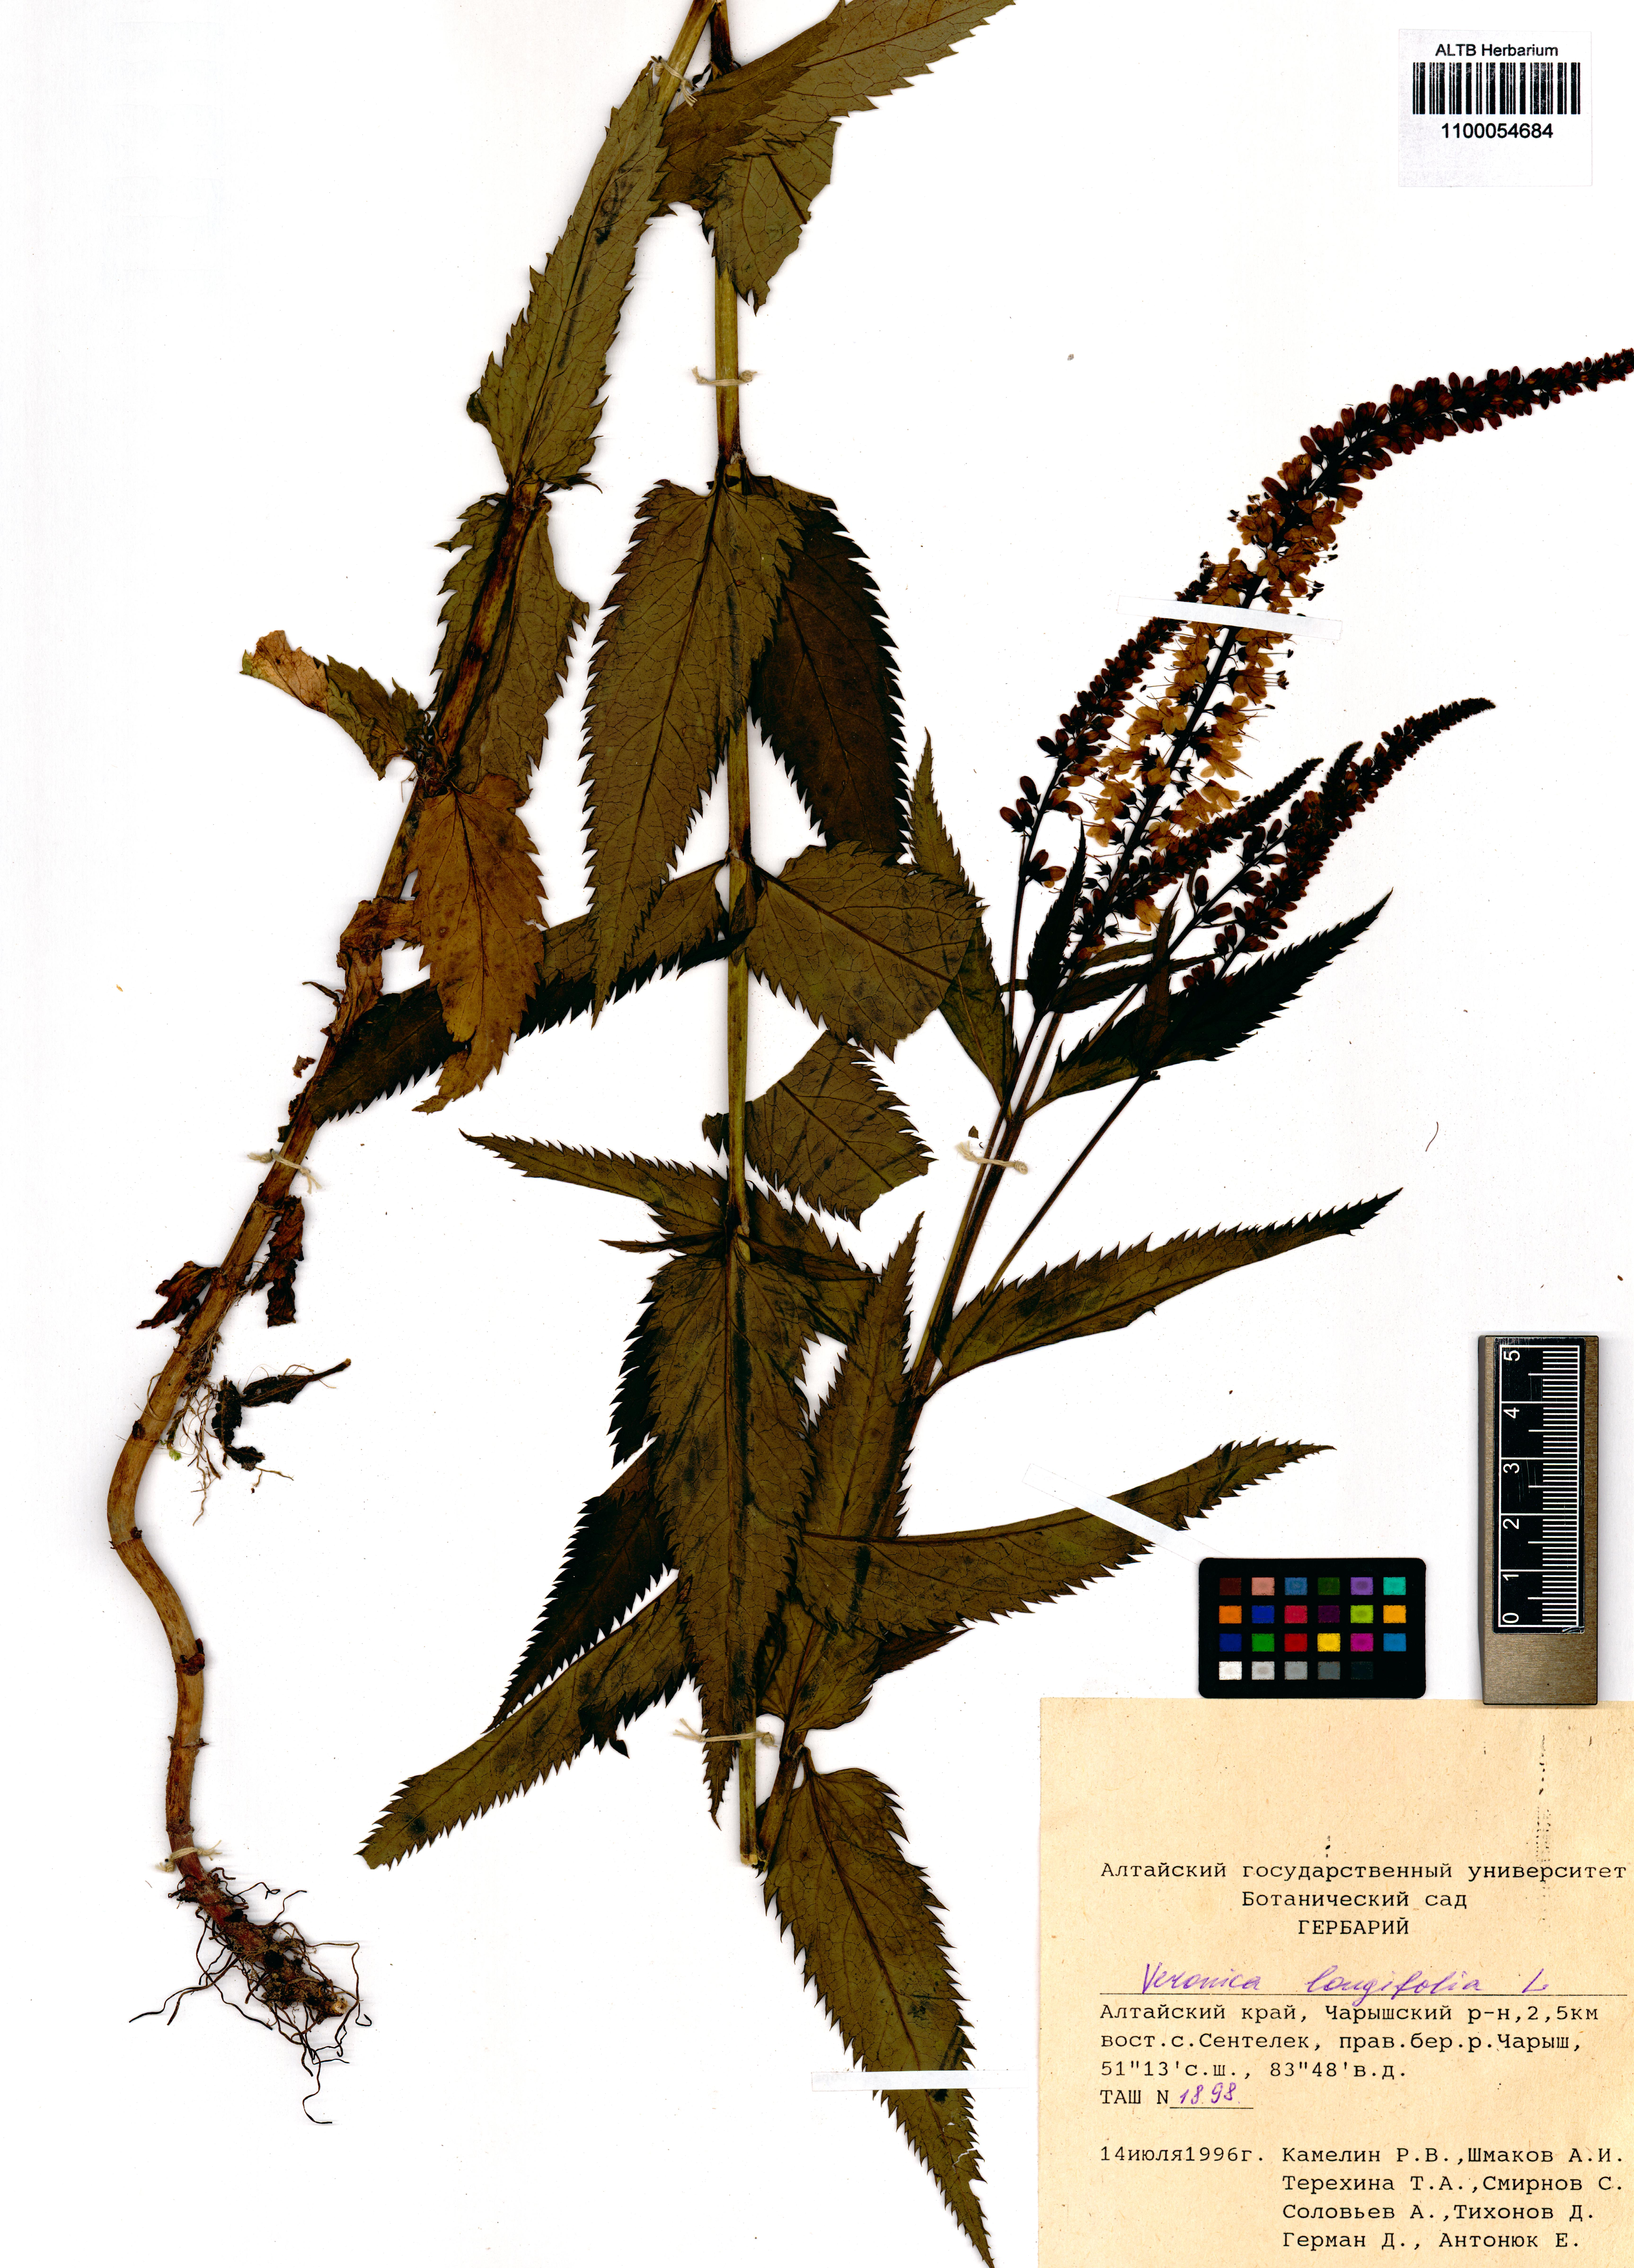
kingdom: Plantae
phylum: Tracheophyta
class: Magnoliopsida
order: Lamiales
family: Plantaginaceae
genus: Veronica
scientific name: Veronica longifolia
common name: Garden speedwell
